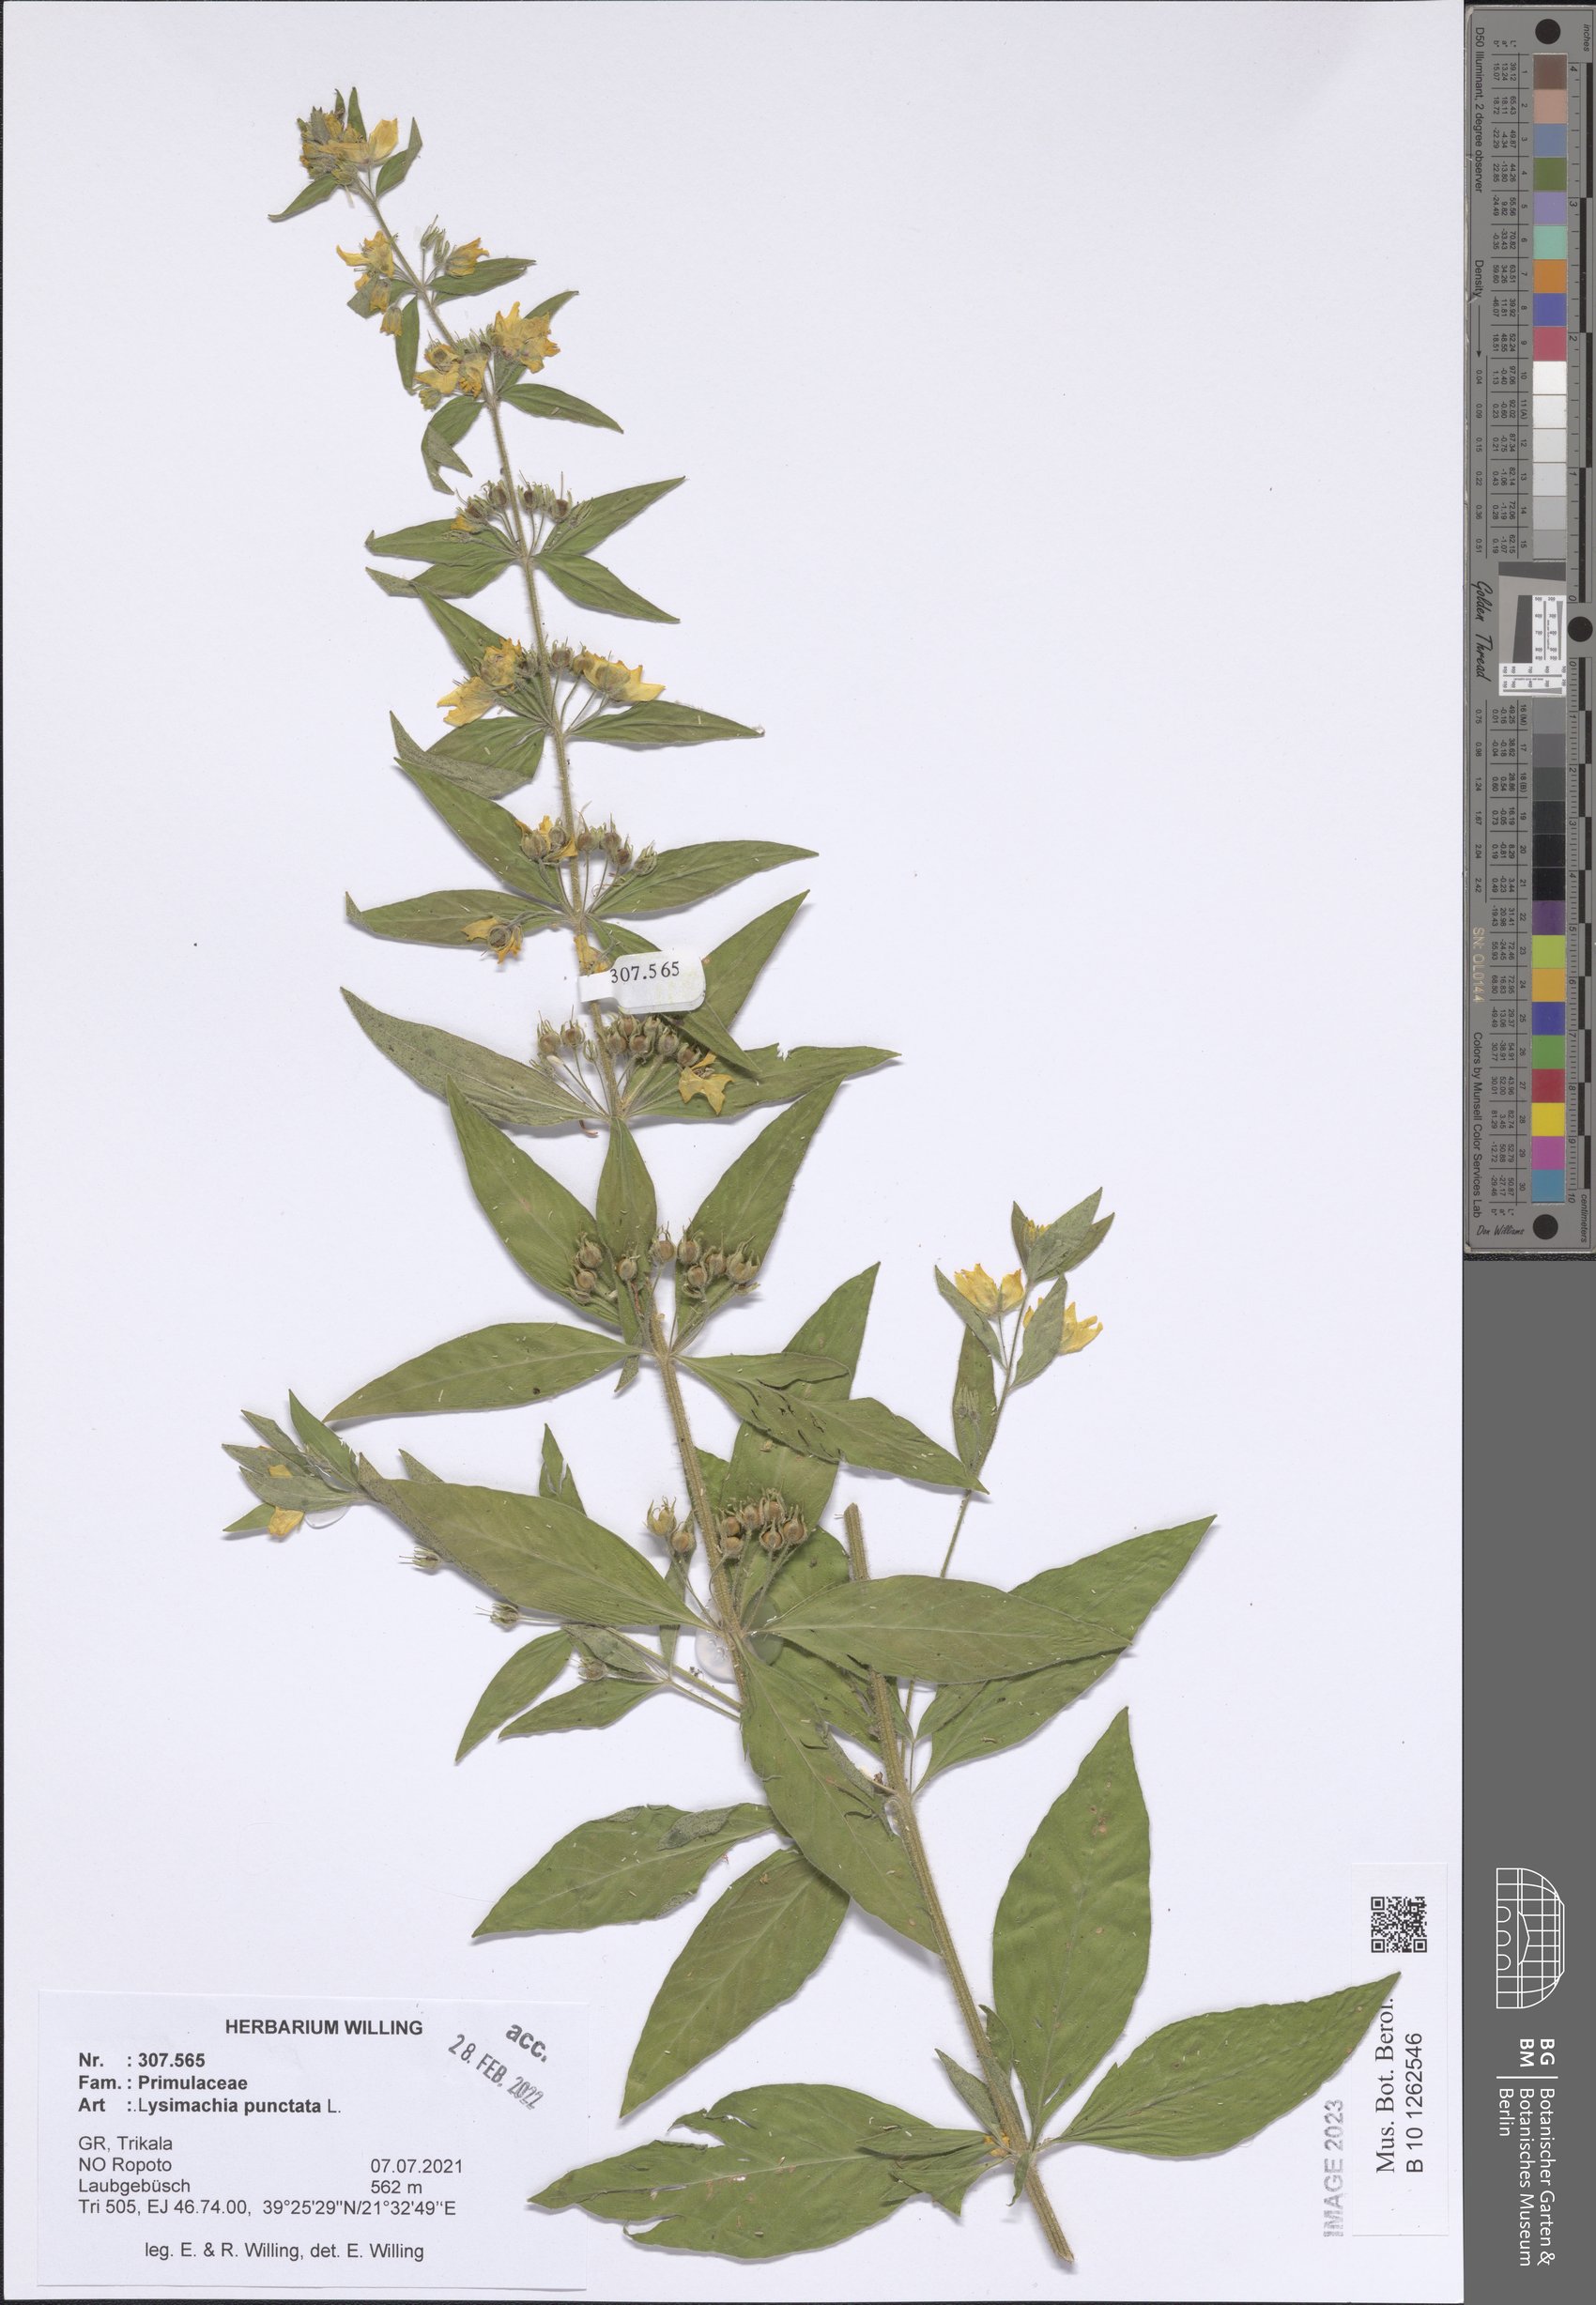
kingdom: Plantae
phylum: Tracheophyta
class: Magnoliopsida
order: Ericales
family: Primulaceae
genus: Lysimachia
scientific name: Lysimachia punctata
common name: Dotted loosestrife
